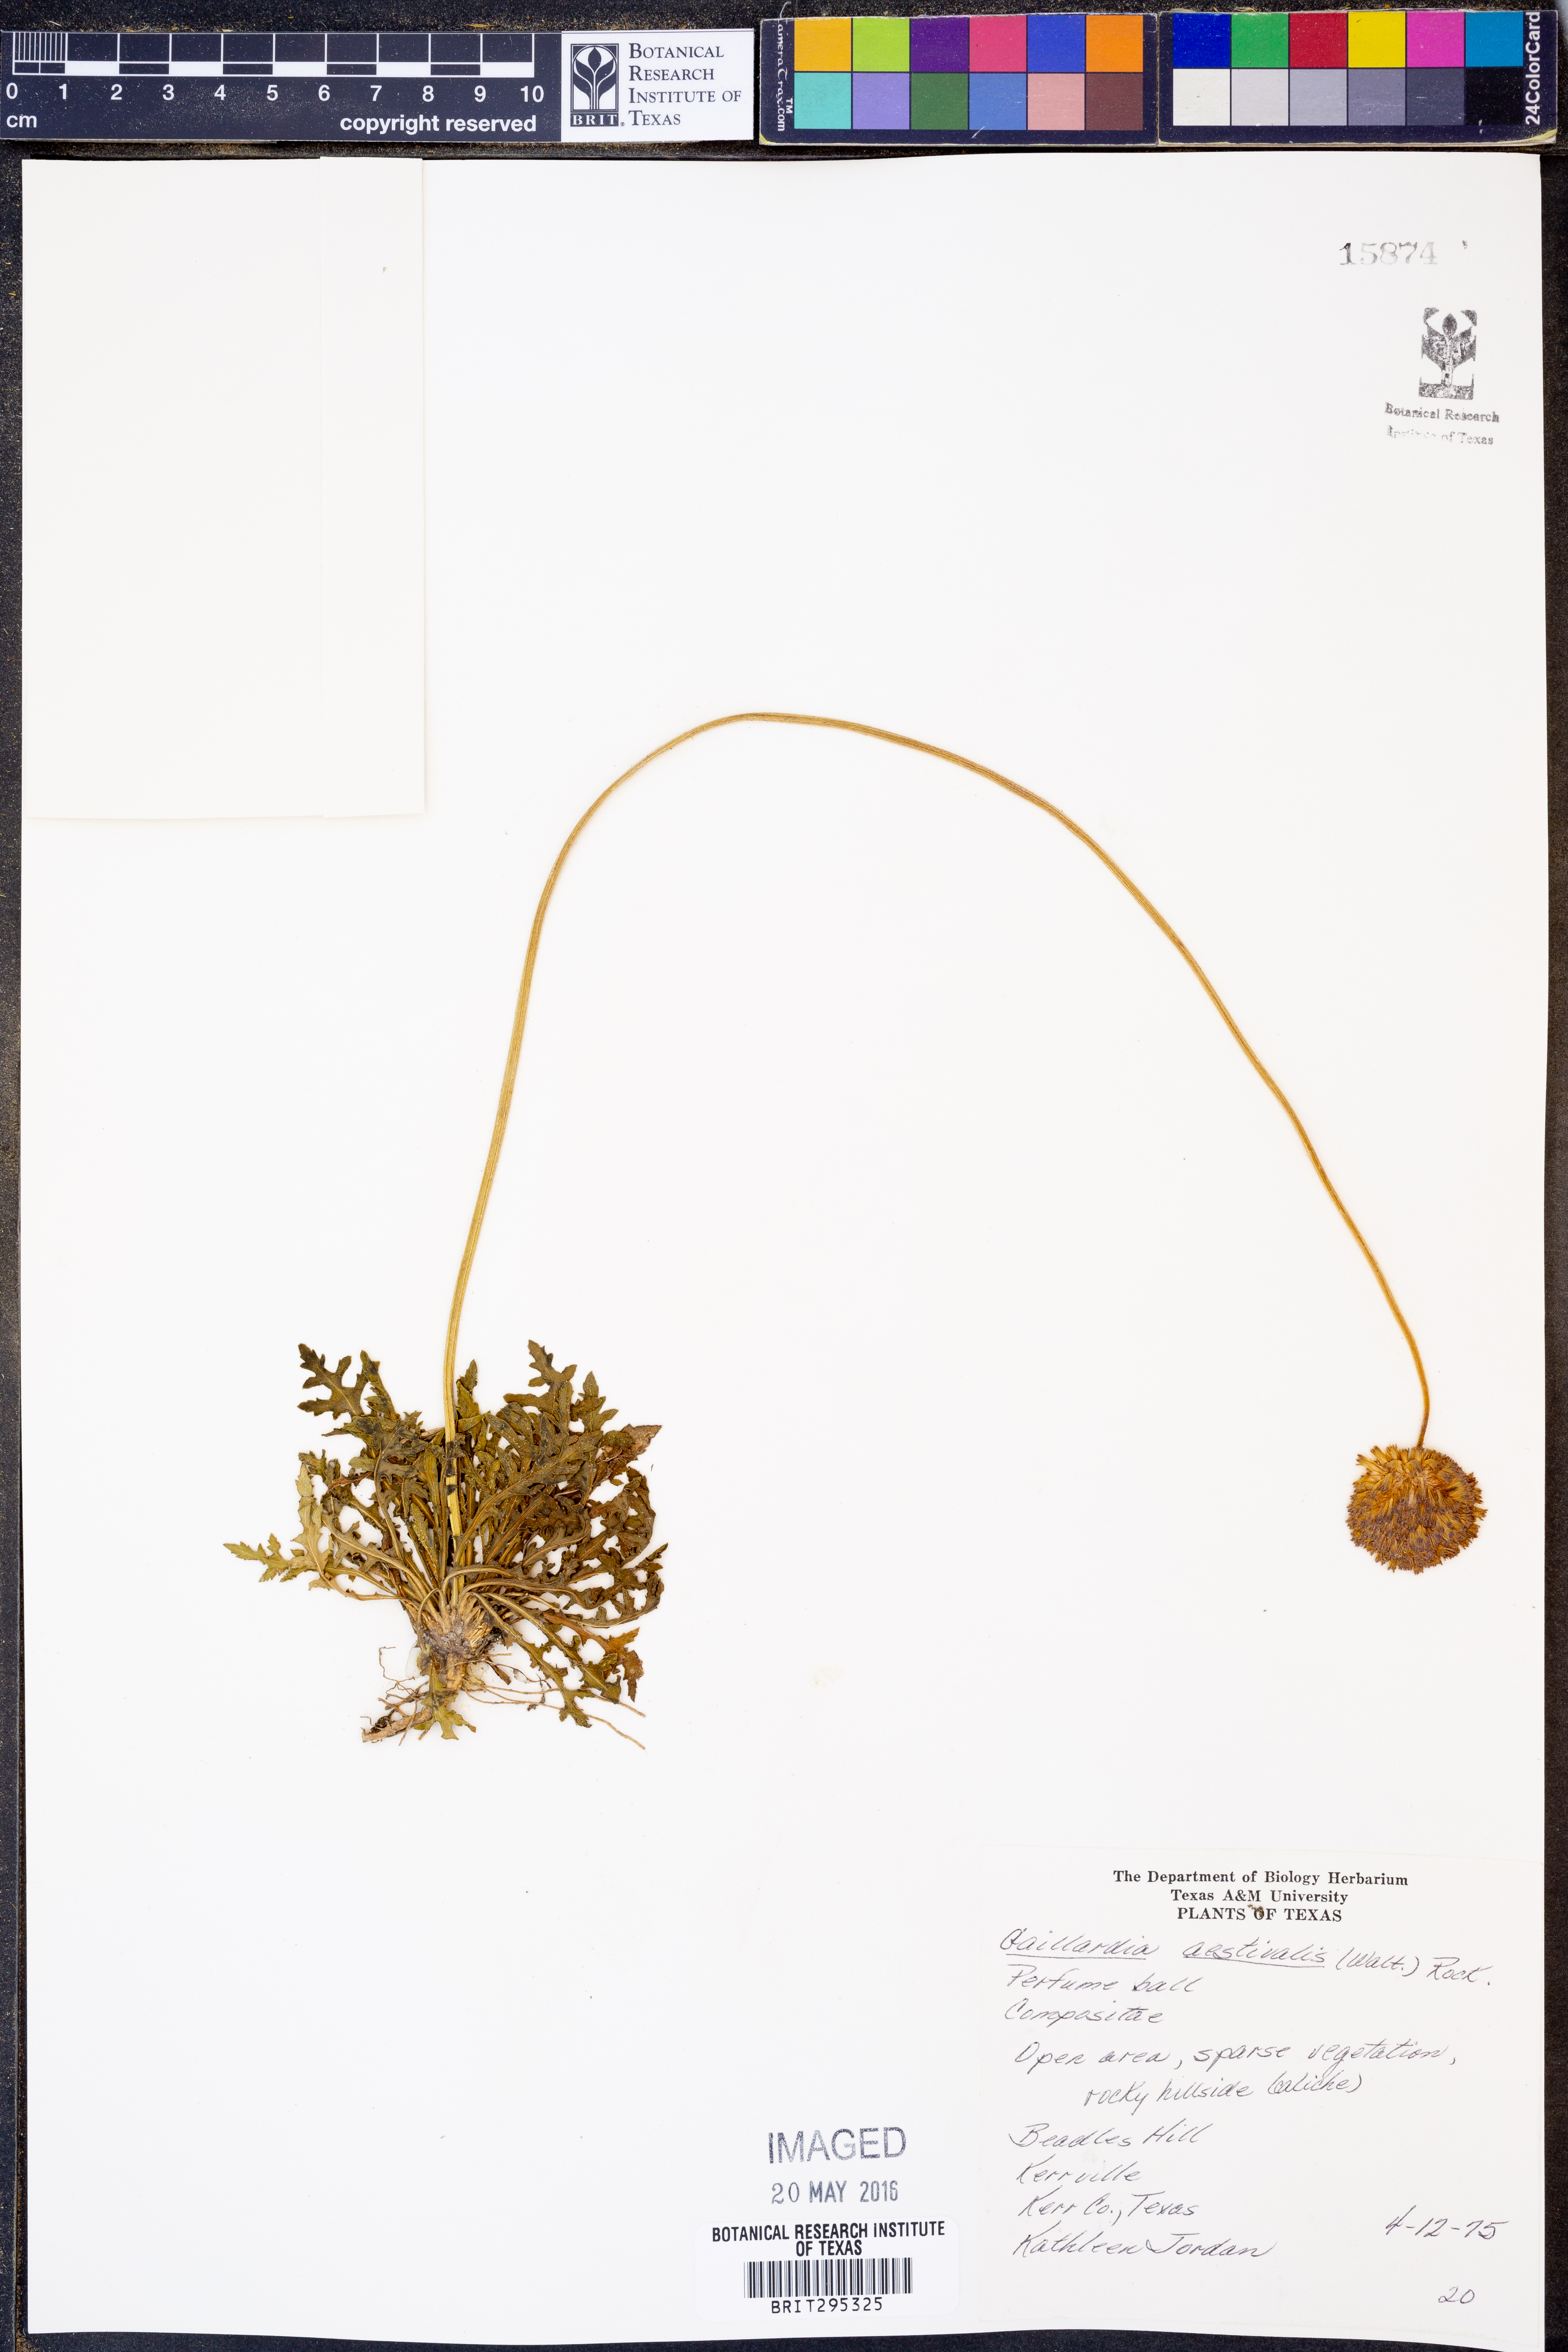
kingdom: Plantae
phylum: Tracheophyta
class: Magnoliopsida
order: Asterales
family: Asteraceae
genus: Gaillardia
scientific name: Gaillardia aestivalis
